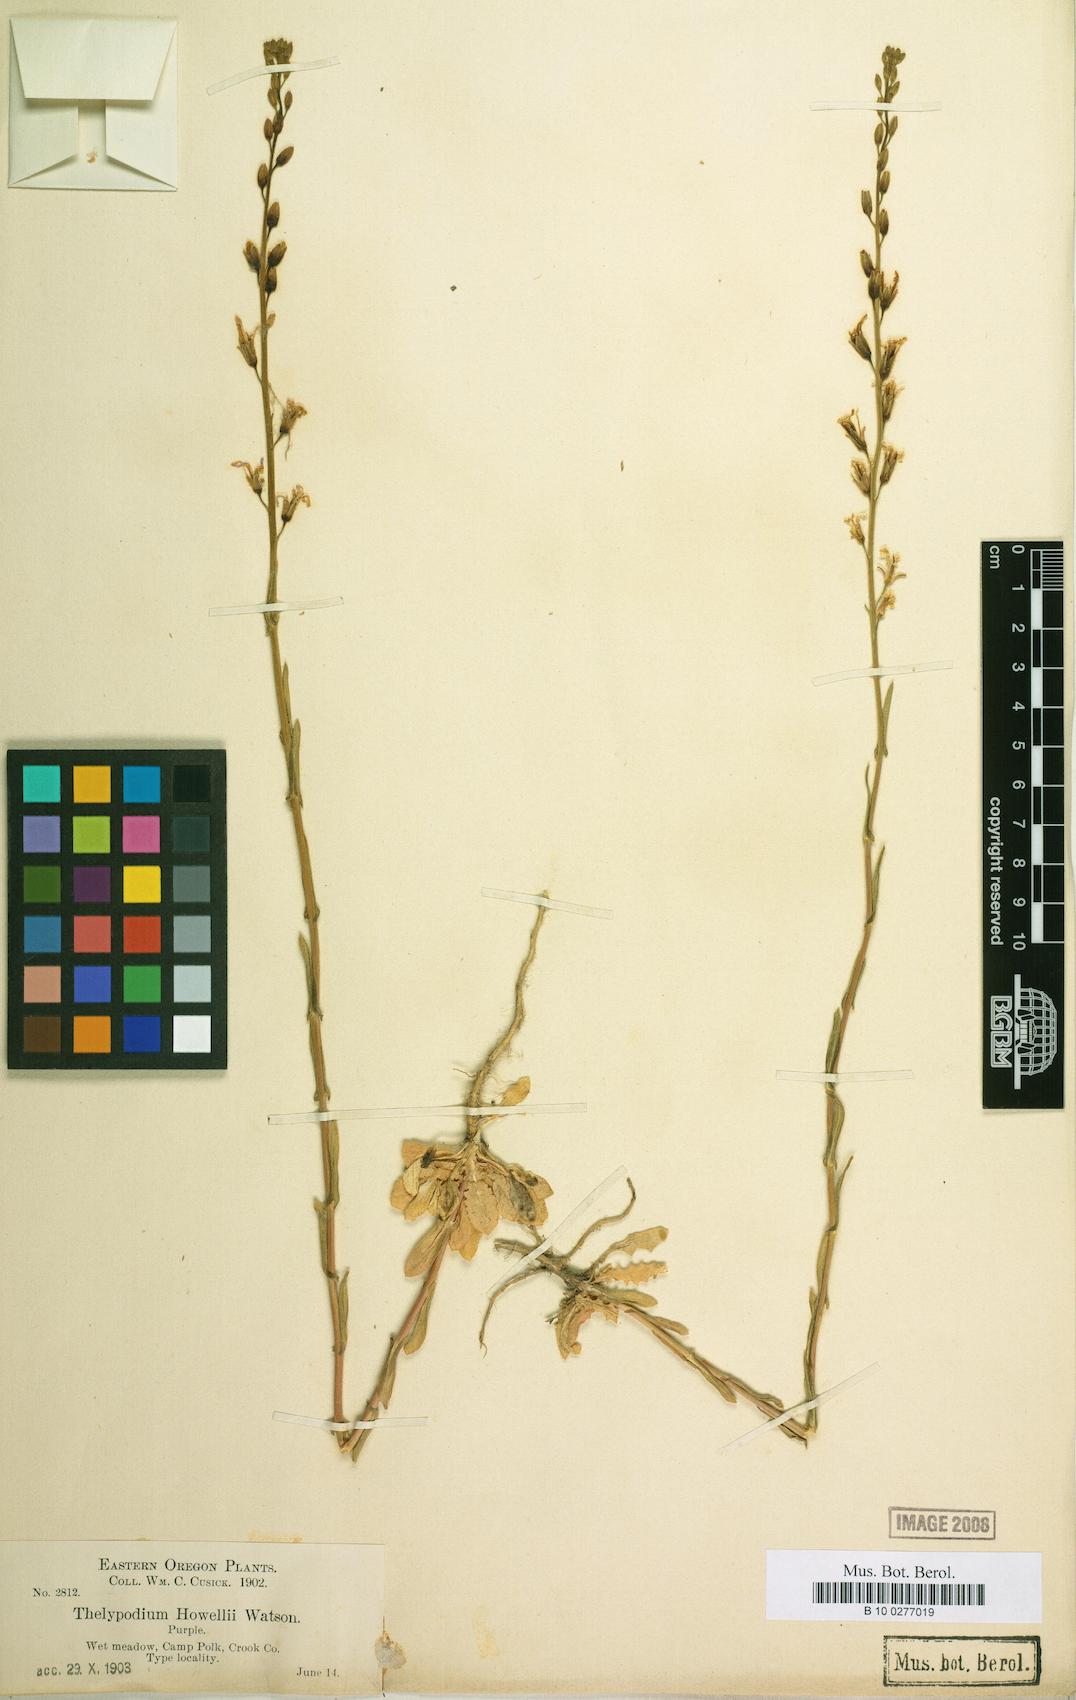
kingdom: Plantae
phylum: Tracheophyta
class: Magnoliopsida
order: Brassicales
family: Brassicaceae
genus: Thelypodium
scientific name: Thelypodium howellii
